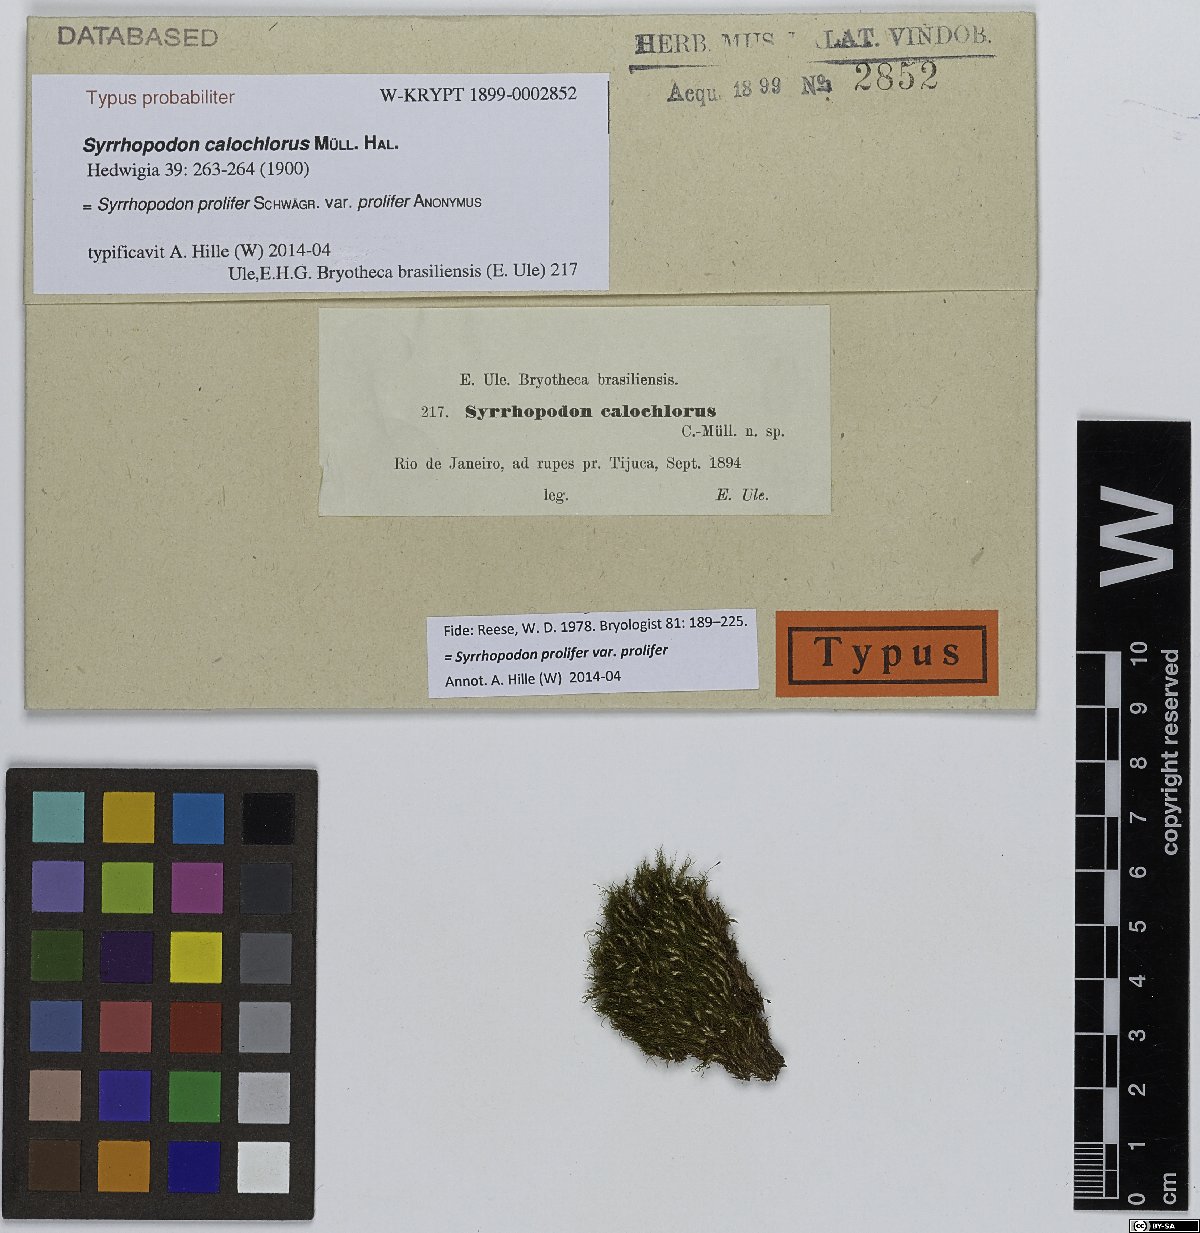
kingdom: Plantae
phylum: Bryophyta
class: Bryopsida
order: Dicranales
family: Calymperaceae
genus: Syrrhopodon
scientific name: Syrrhopodon prolifer
